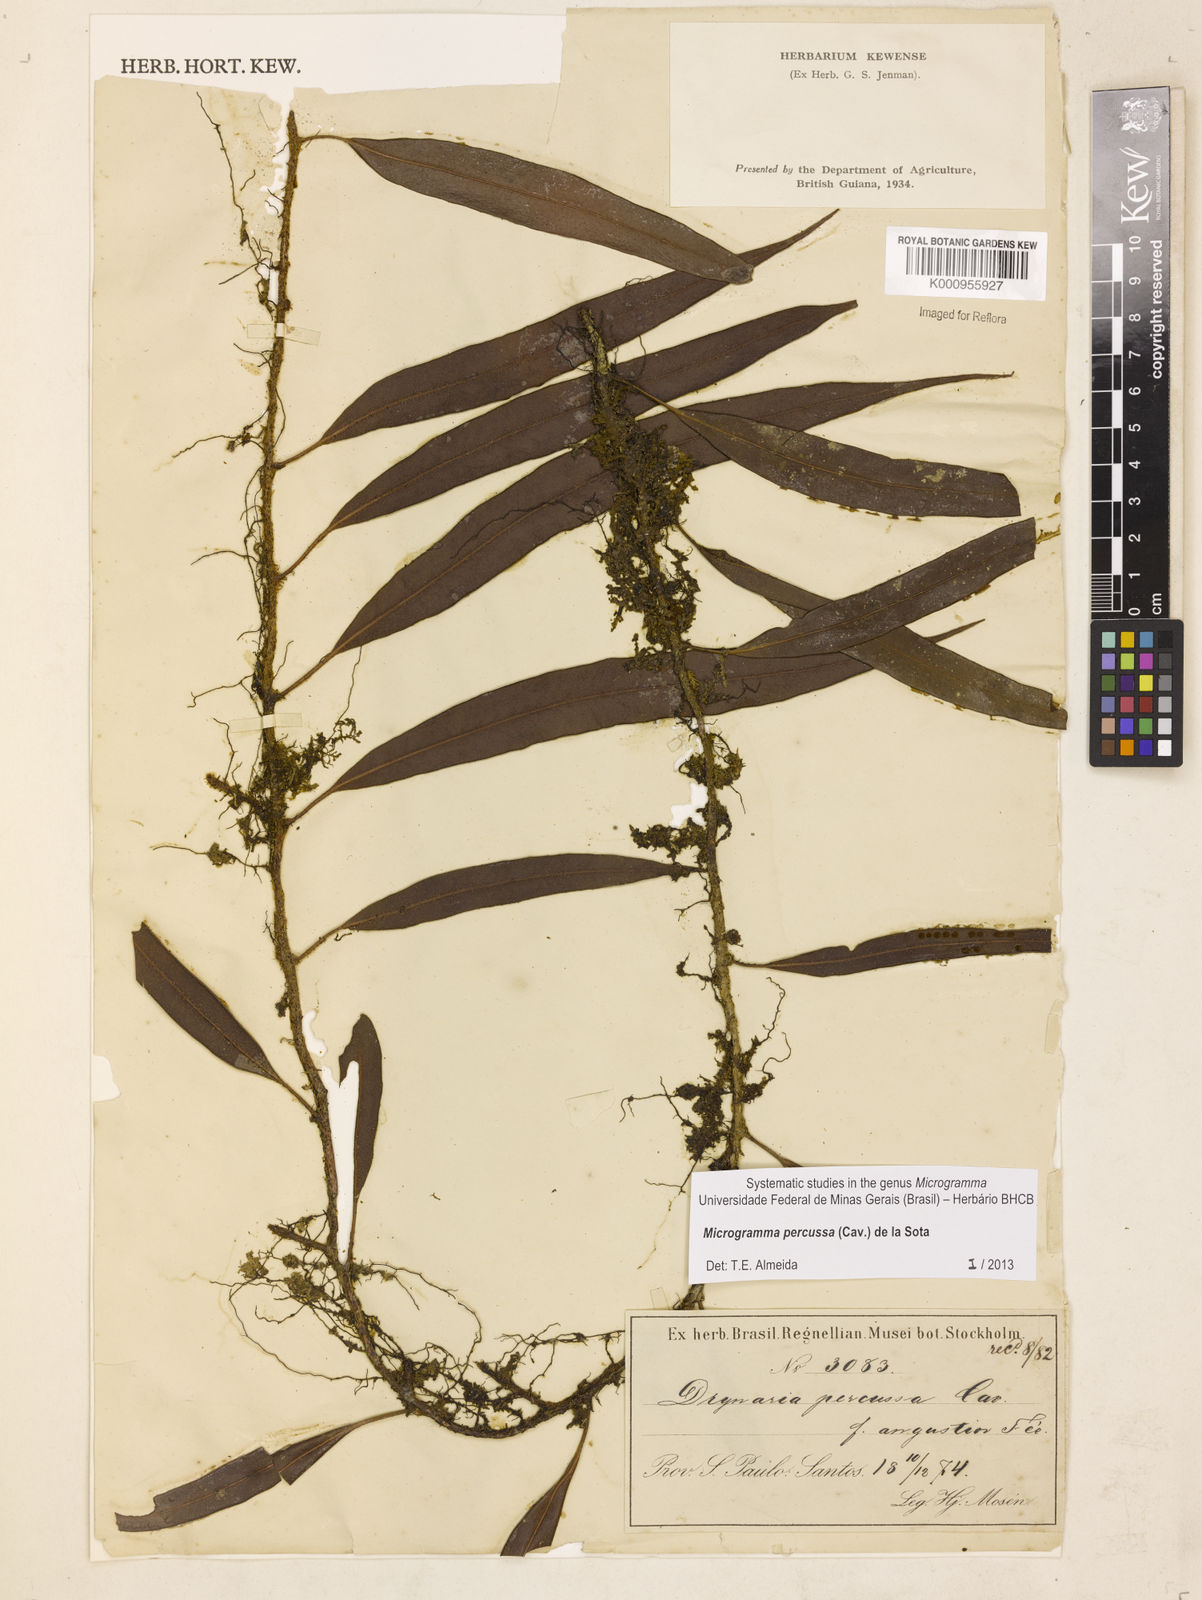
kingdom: Plantae
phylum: Tracheophyta
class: Polypodiopsida
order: Polypodiales
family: Polypodiaceae
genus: Microgramma
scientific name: Microgramma percussa
